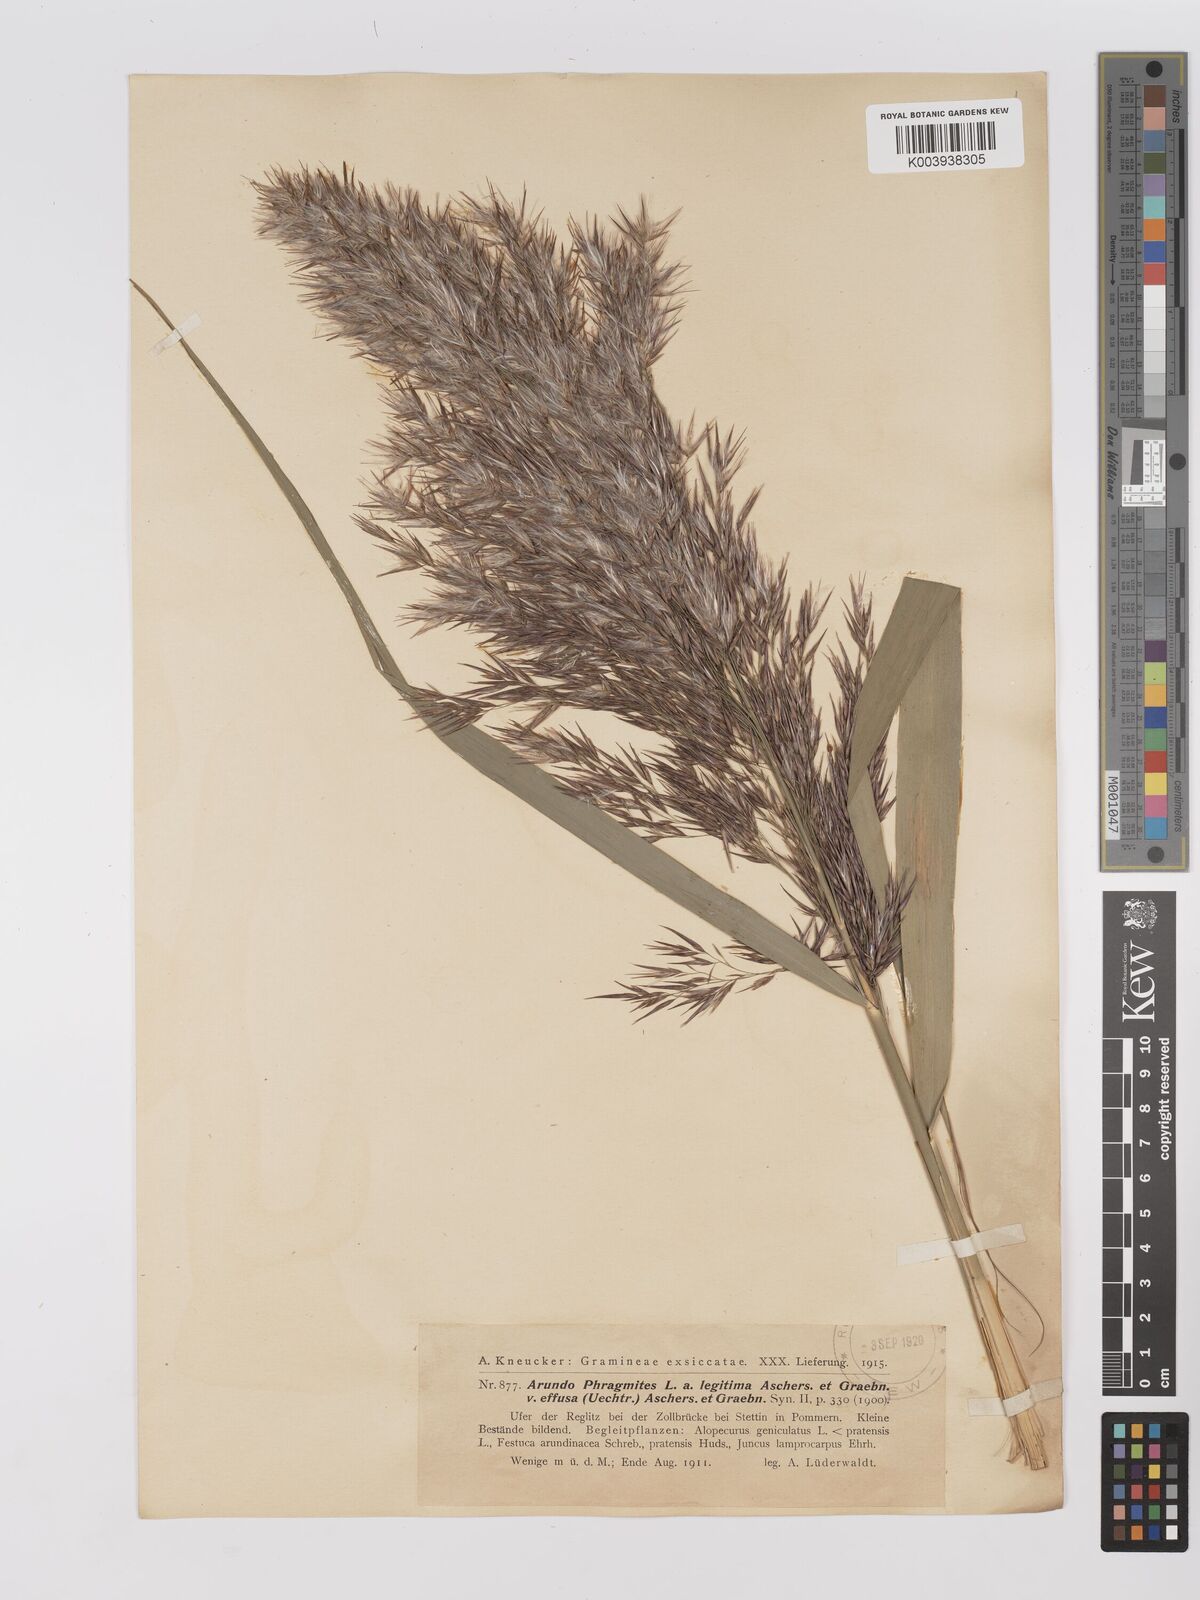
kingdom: Plantae
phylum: Tracheophyta
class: Liliopsida
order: Poales
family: Poaceae
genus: Phragmites
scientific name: Phragmites australis
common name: Common reed
